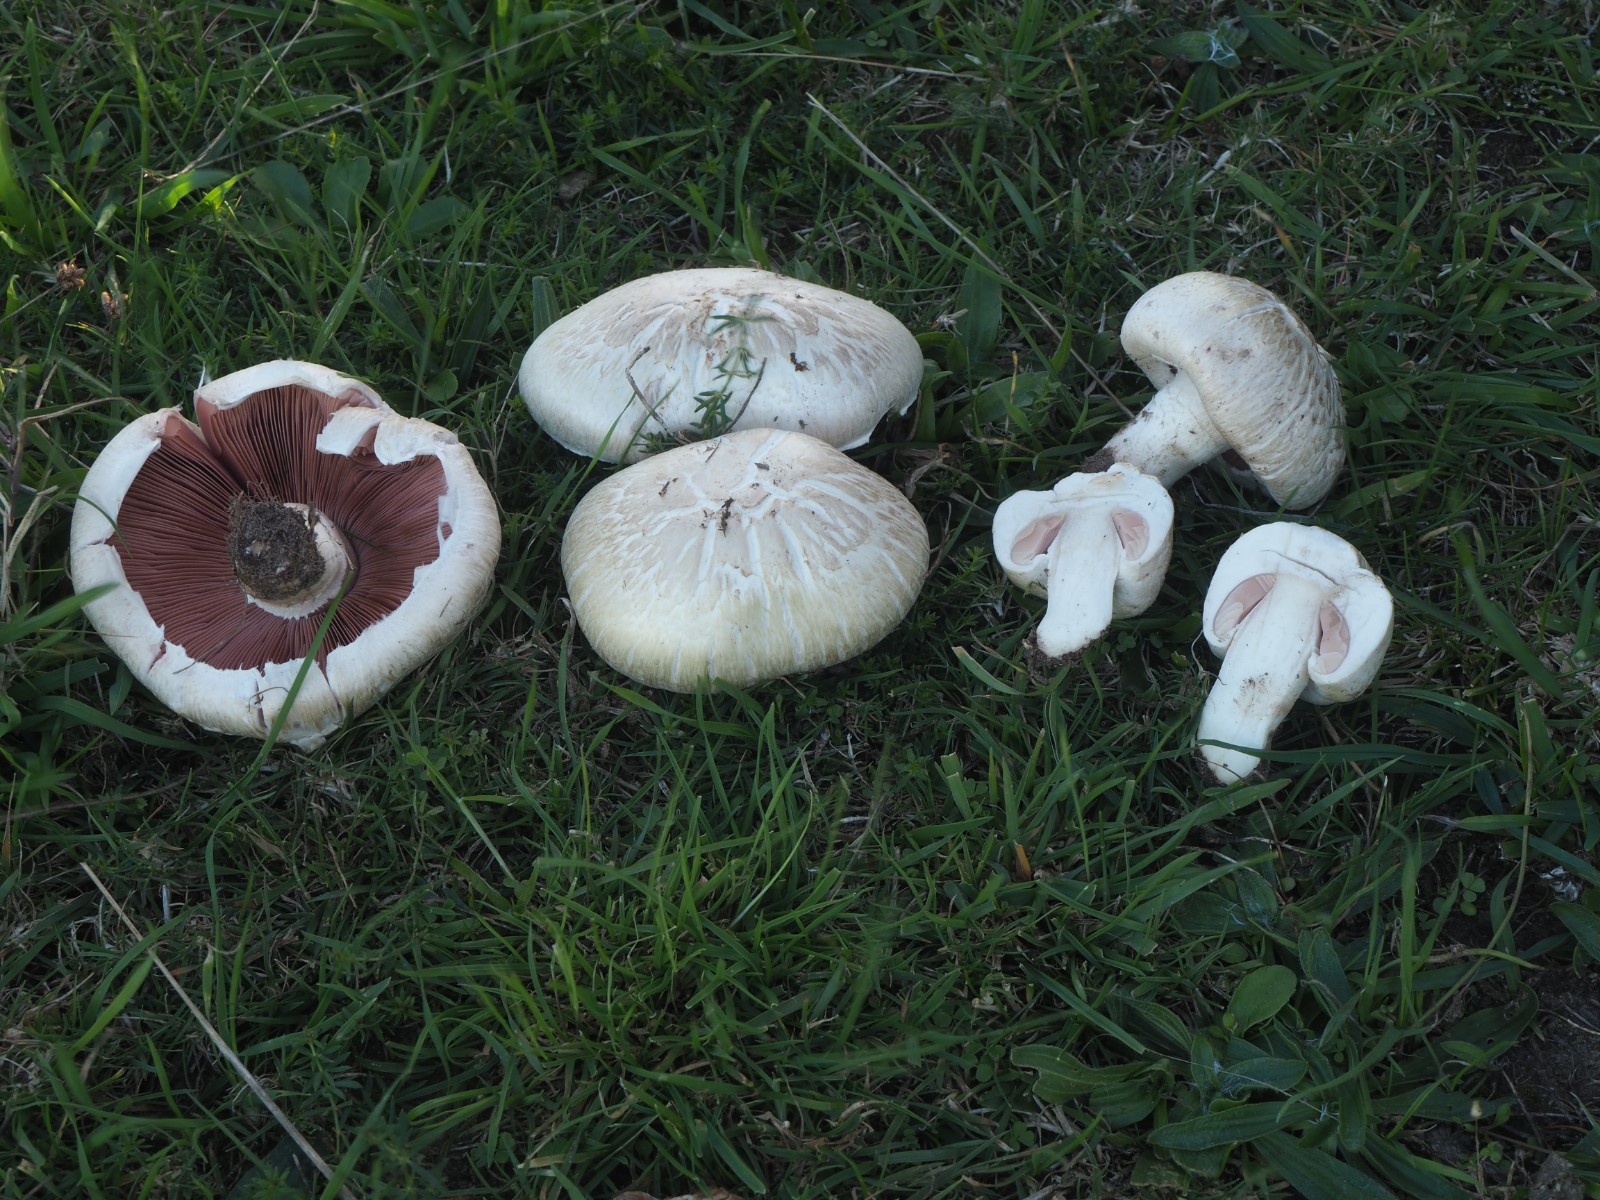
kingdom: Fungi
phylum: Basidiomycota
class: Agaricomycetes
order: Agaricales
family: Agaricaceae
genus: Agaricus
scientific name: Agaricus litoralis
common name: kyst-champignon
